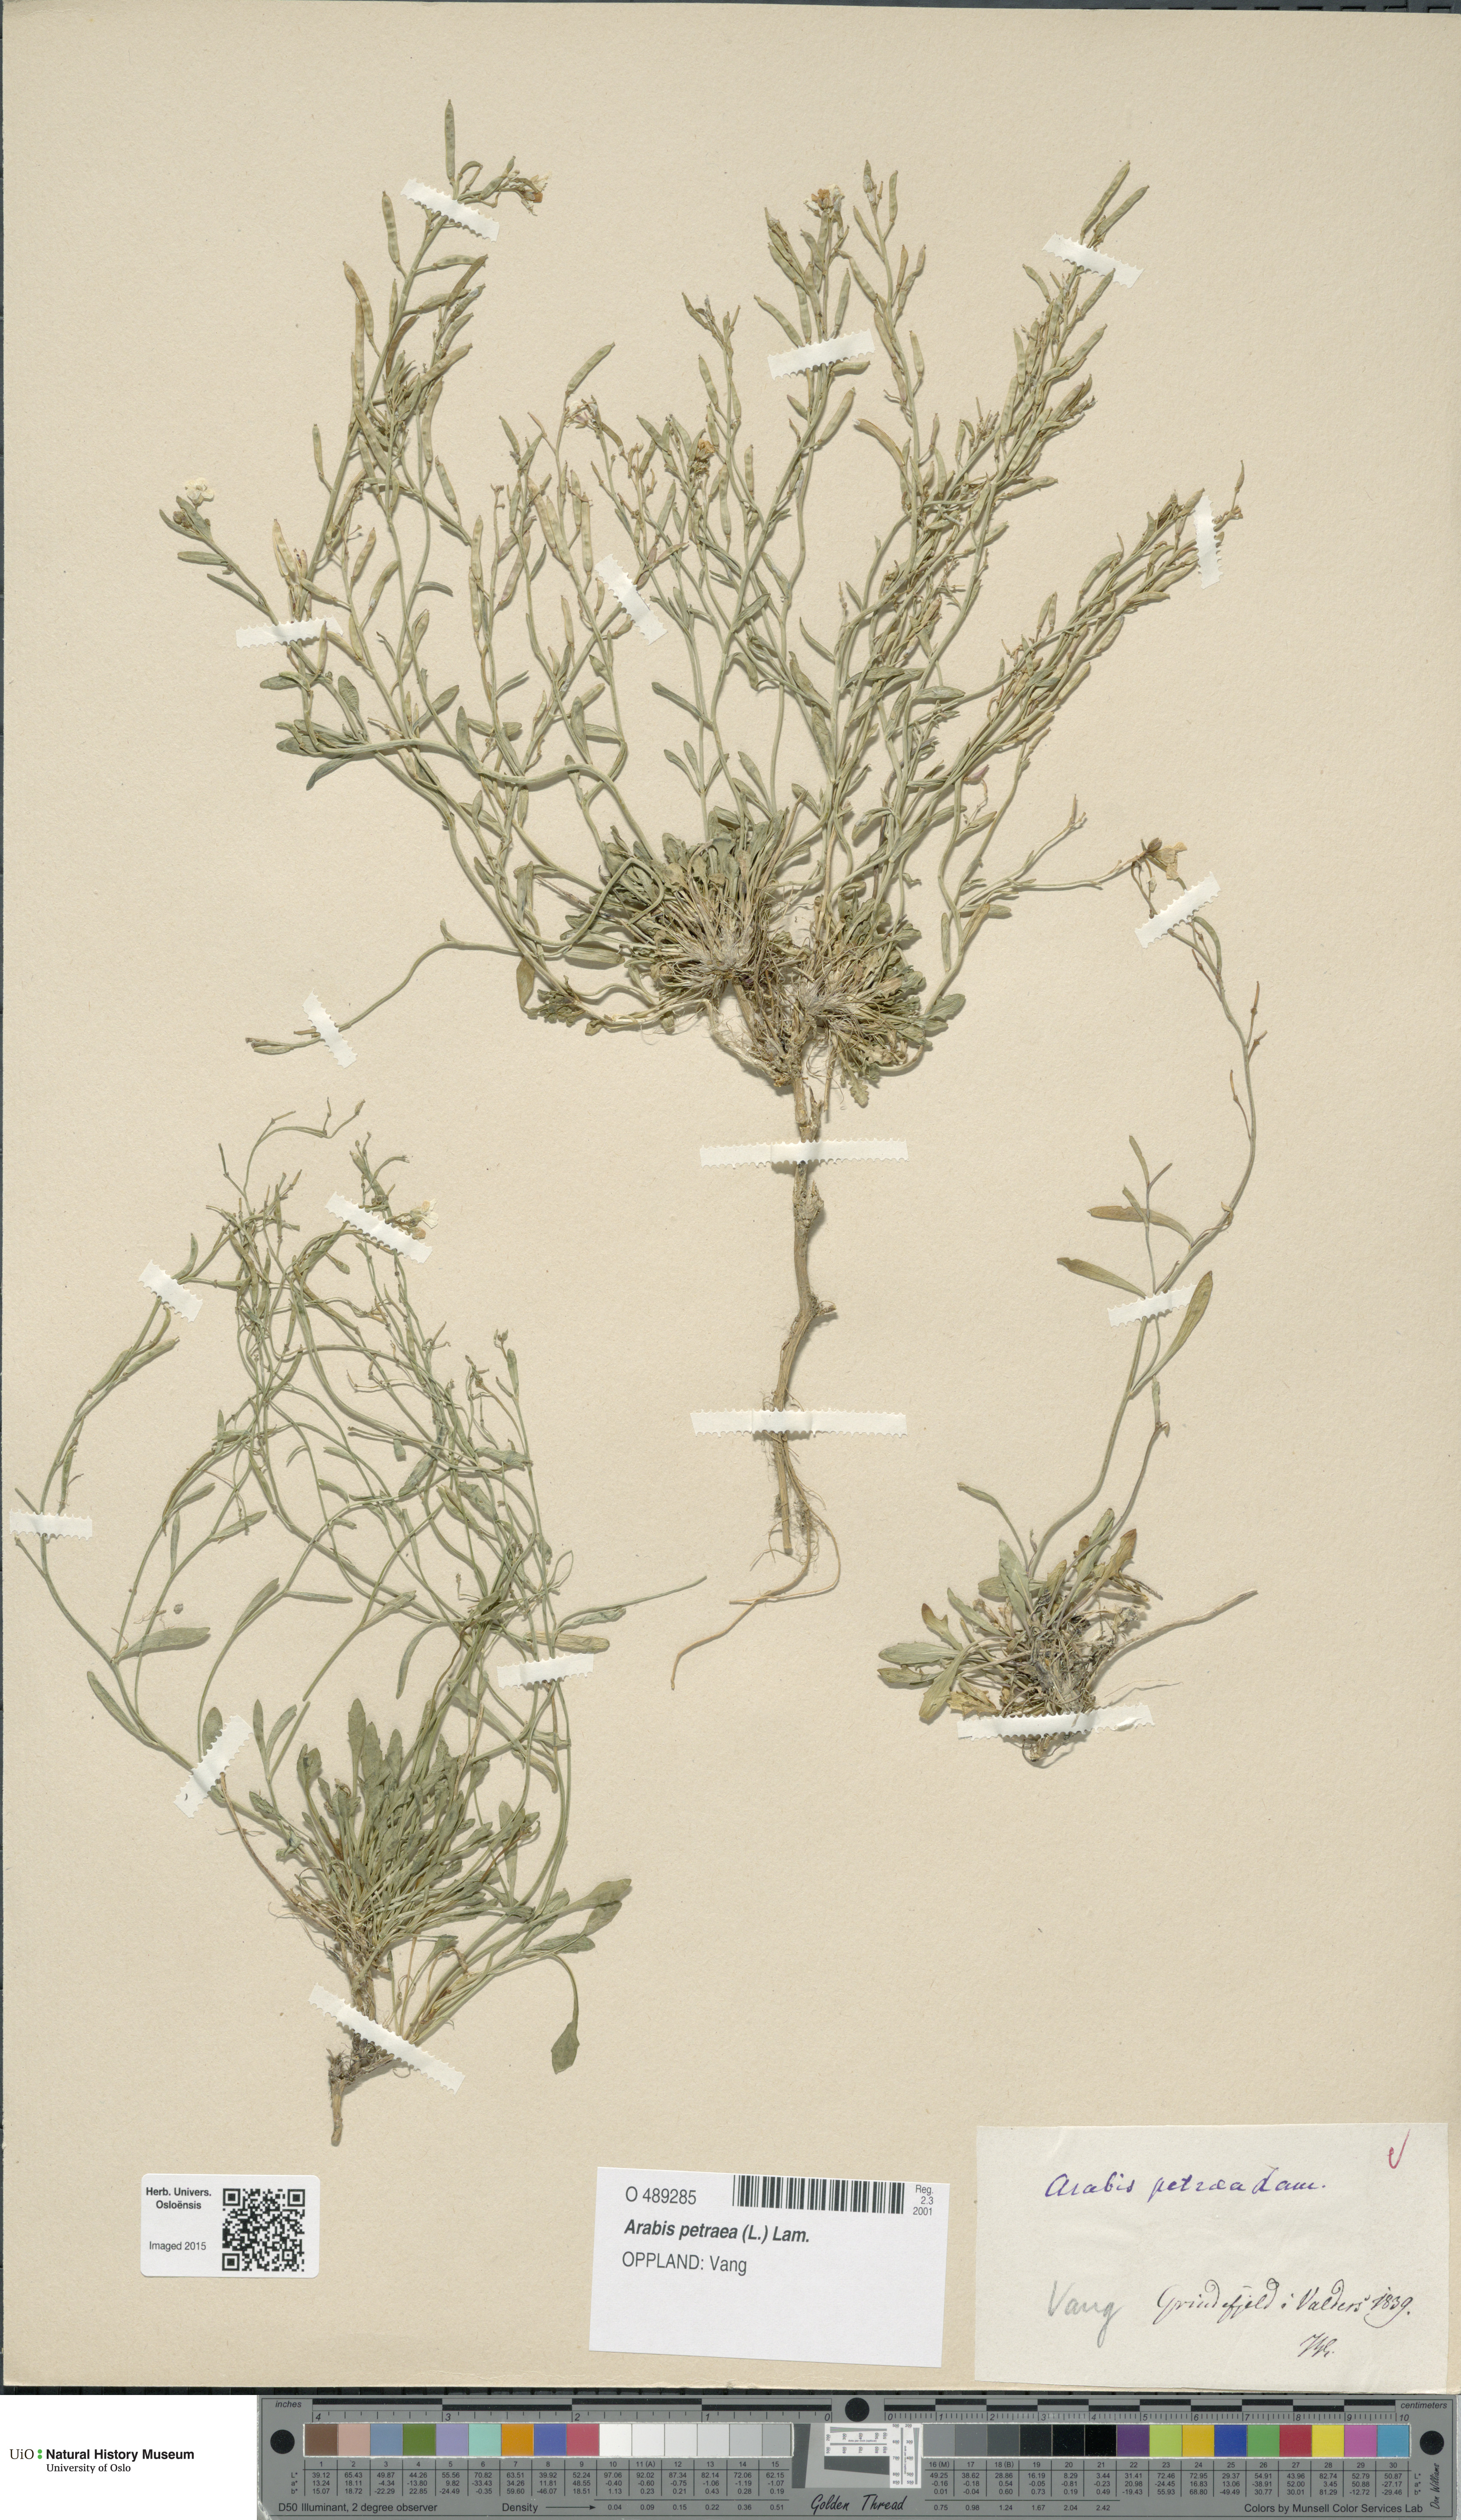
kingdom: Plantae
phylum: Tracheophyta
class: Magnoliopsida
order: Brassicales
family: Brassicaceae
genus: Arabidopsis
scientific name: Arabidopsis petraea
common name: Northern rock-cress
